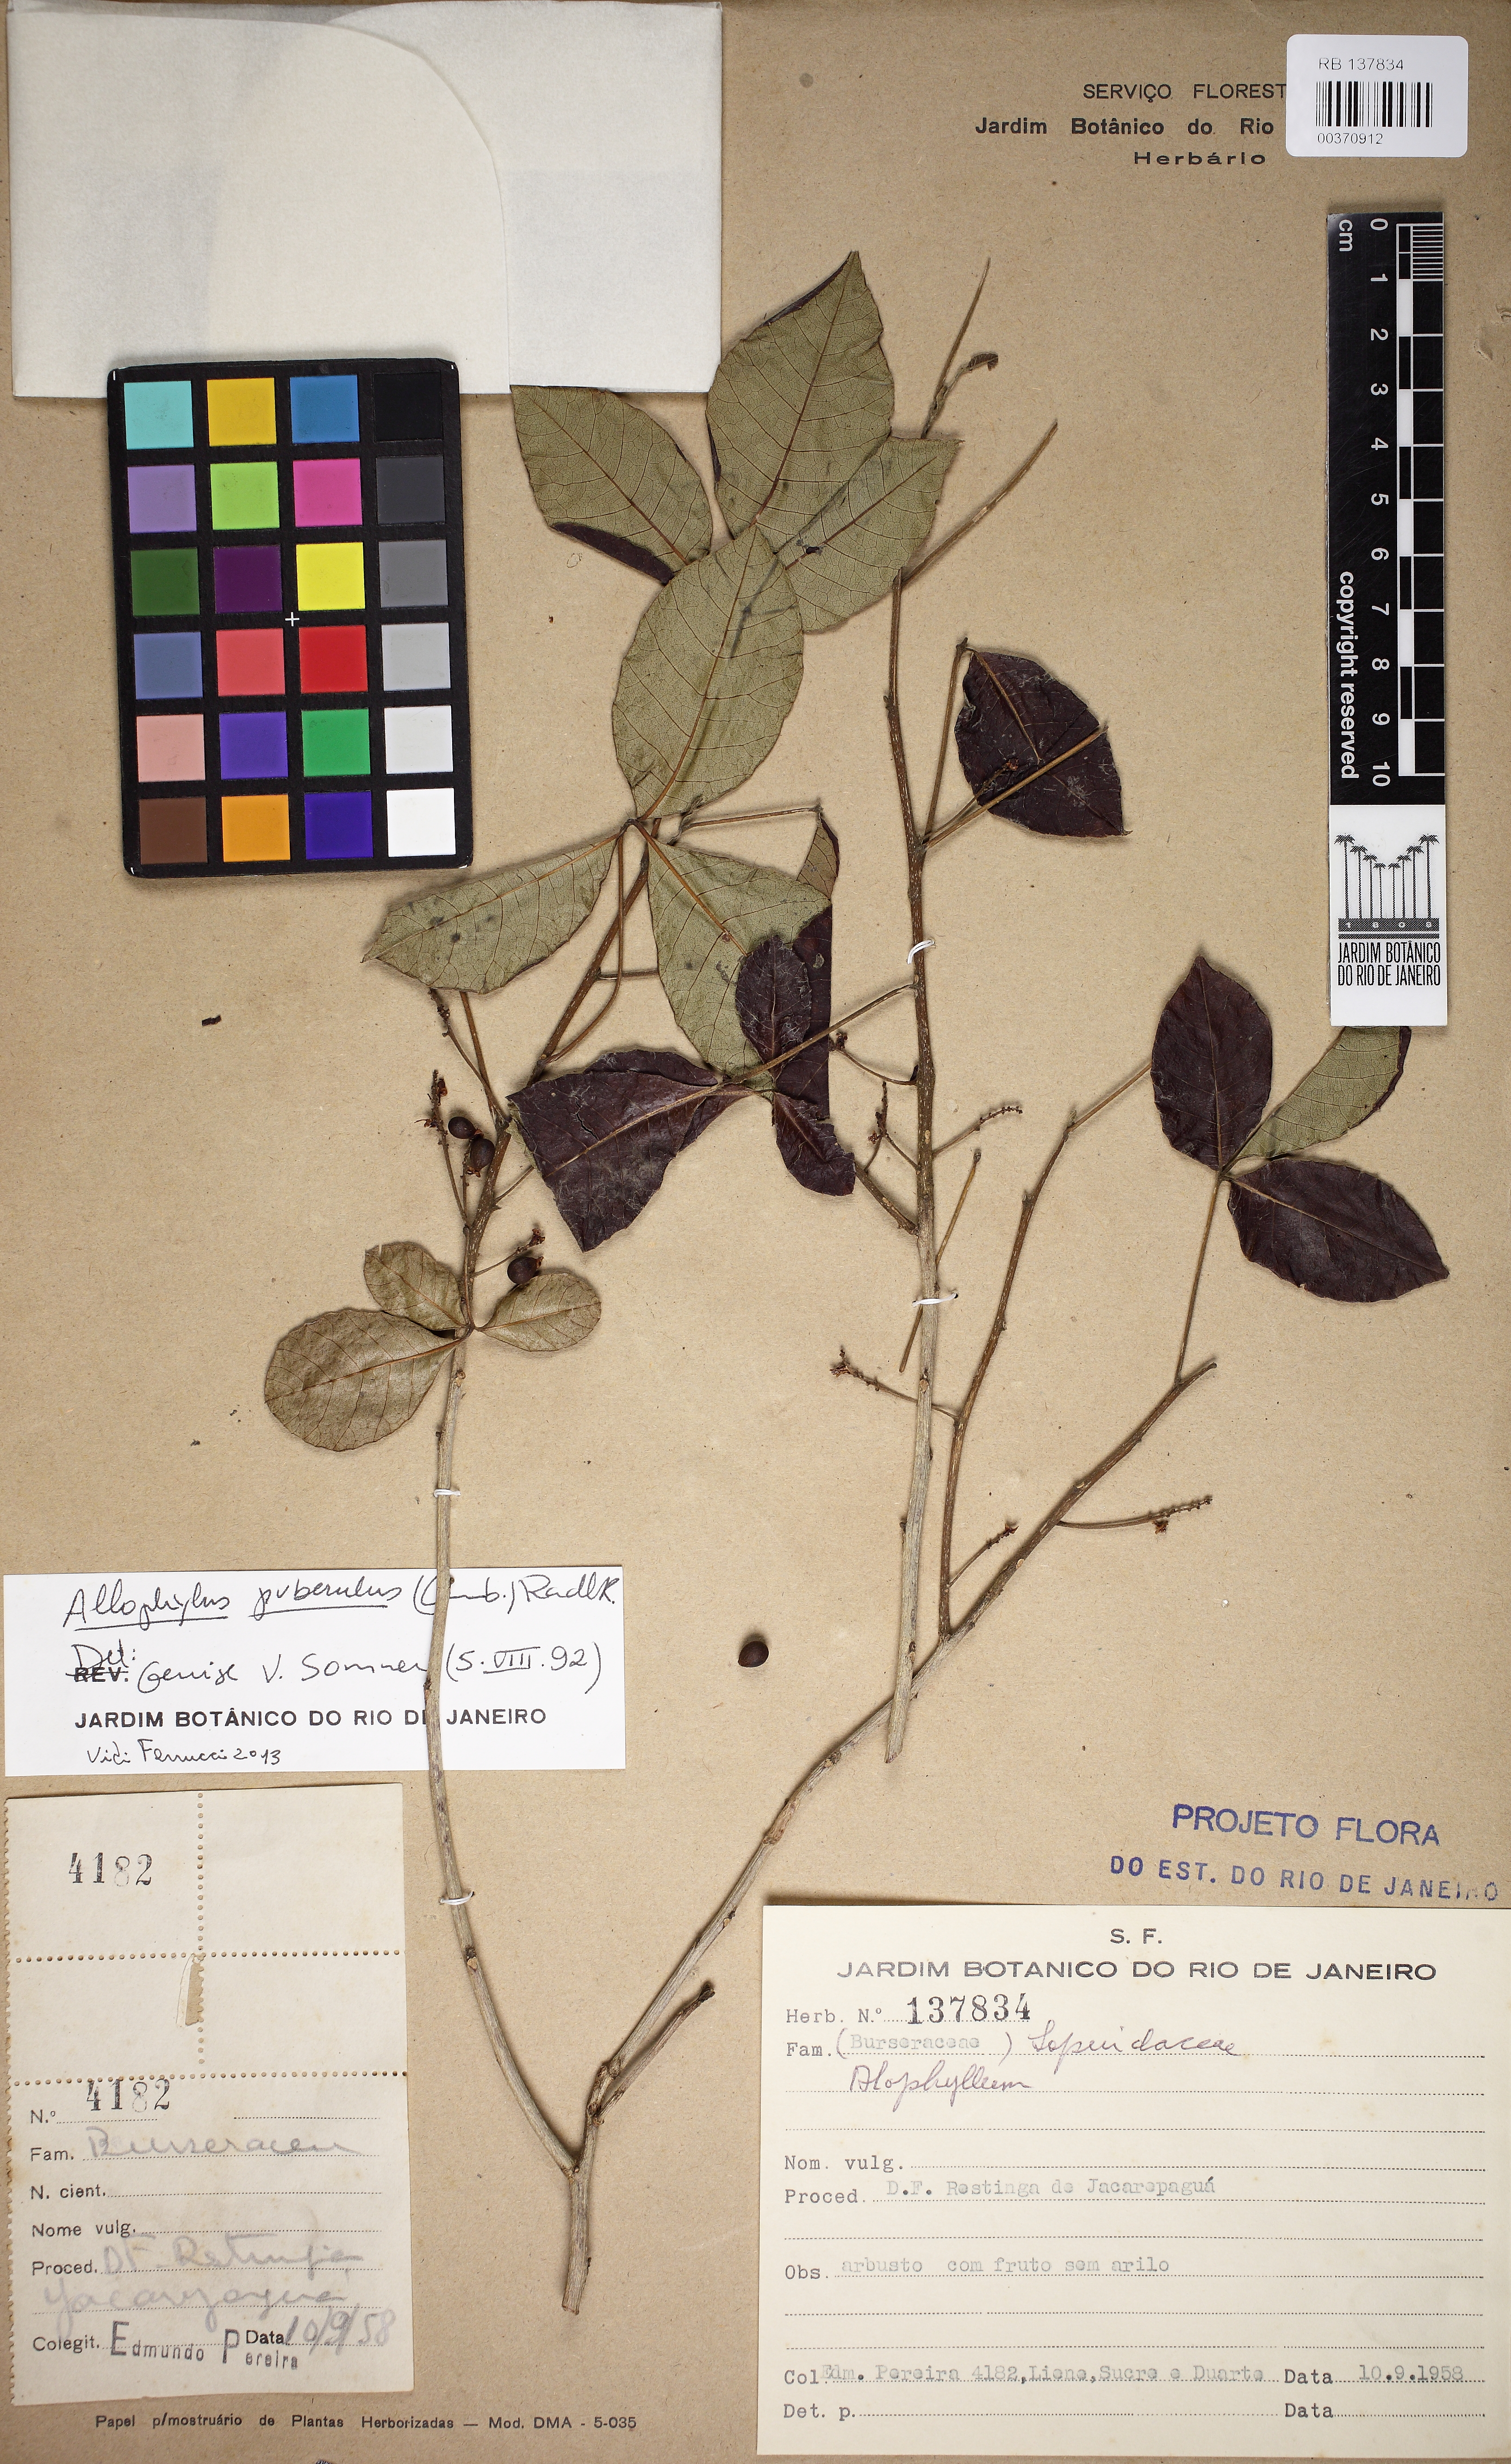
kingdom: Plantae
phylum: Tracheophyta
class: Magnoliopsida
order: Sapindales
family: Sapindaceae
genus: Allophylus
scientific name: Allophylus puberulus
